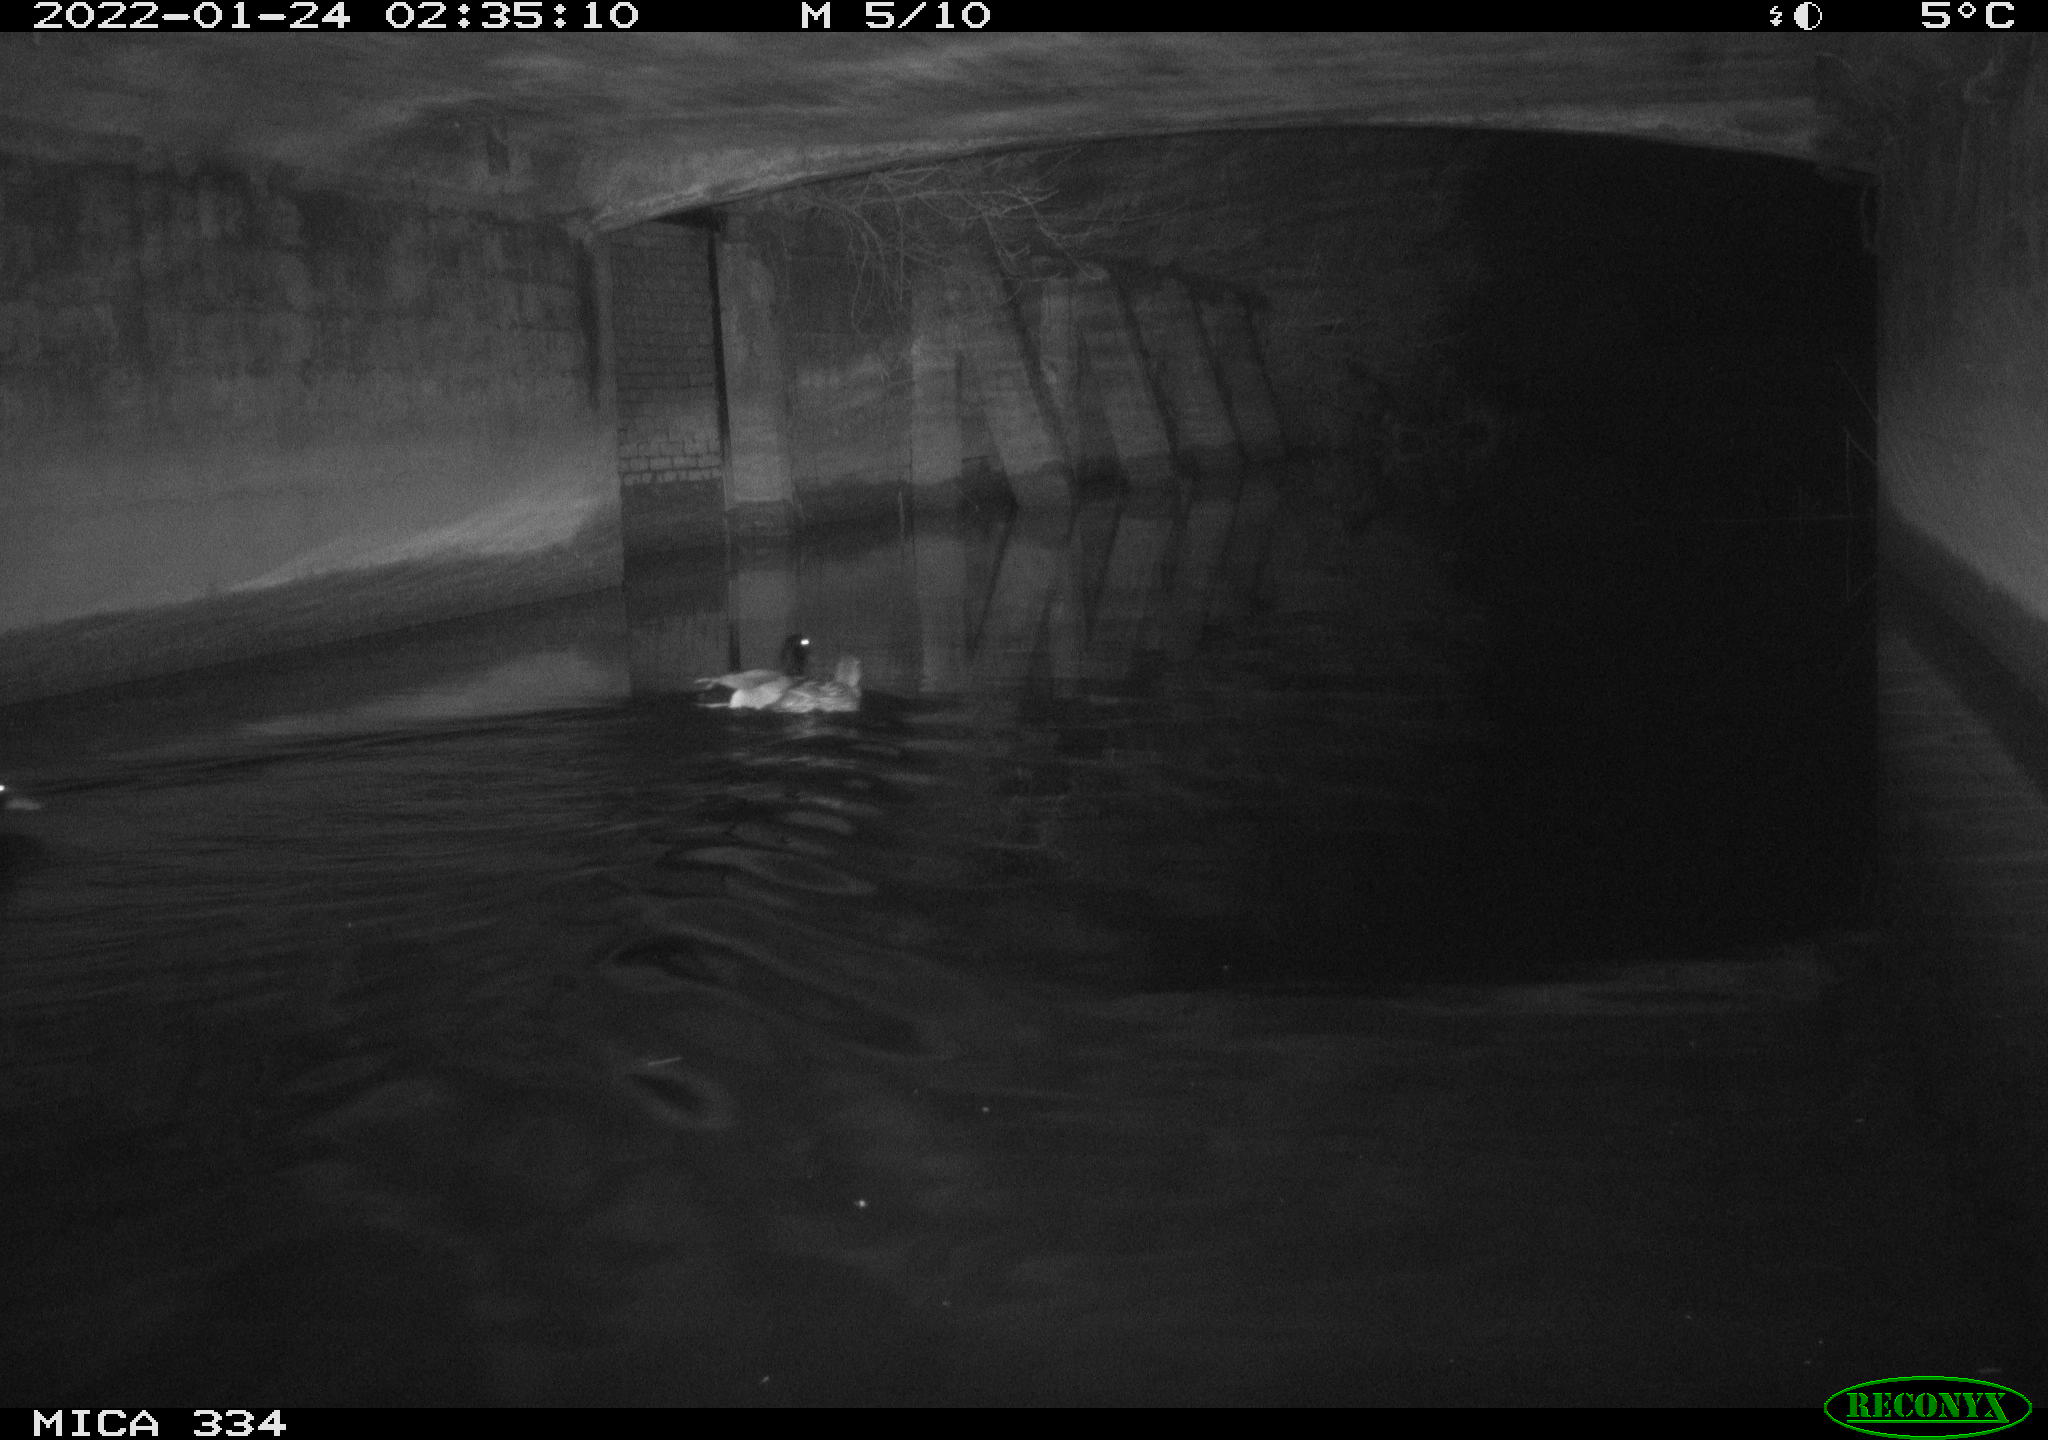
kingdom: Animalia
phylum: Chordata
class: Aves
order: Anseriformes
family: Anatidae
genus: Anas
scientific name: Anas platyrhynchos
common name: Mallard
